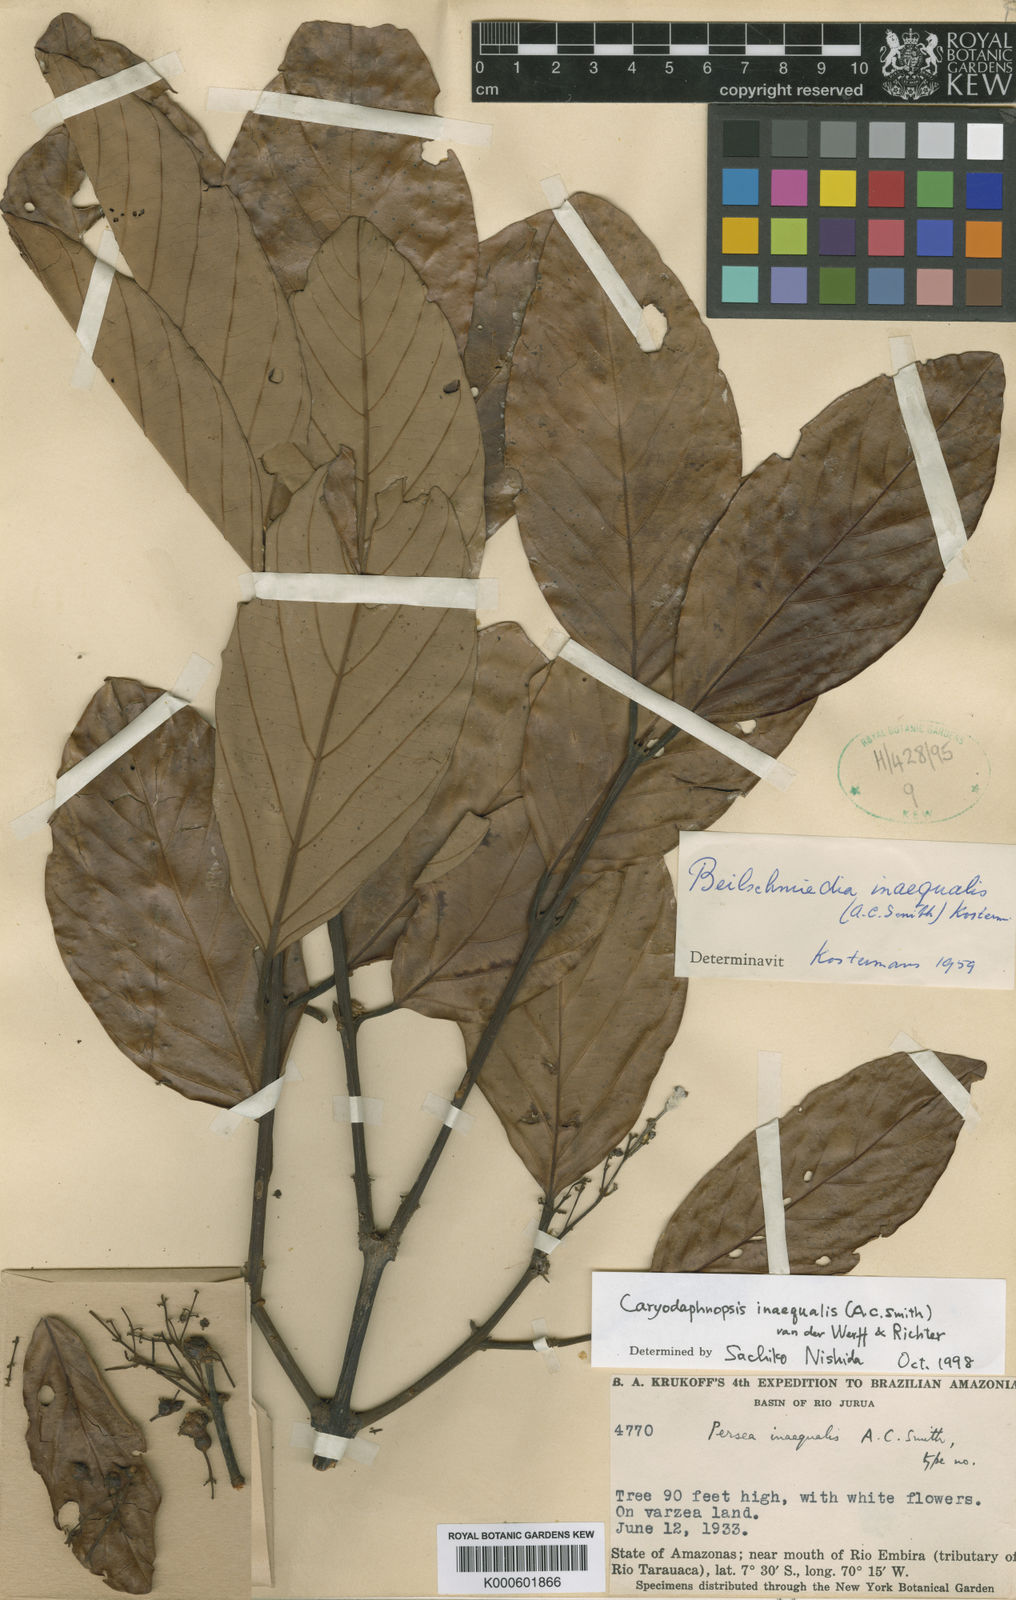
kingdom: Plantae
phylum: Tracheophyta
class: Magnoliopsida
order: Laurales
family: Lauraceae
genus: Caryodaphnopsis
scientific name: Caryodaphnopsis inaequalis
